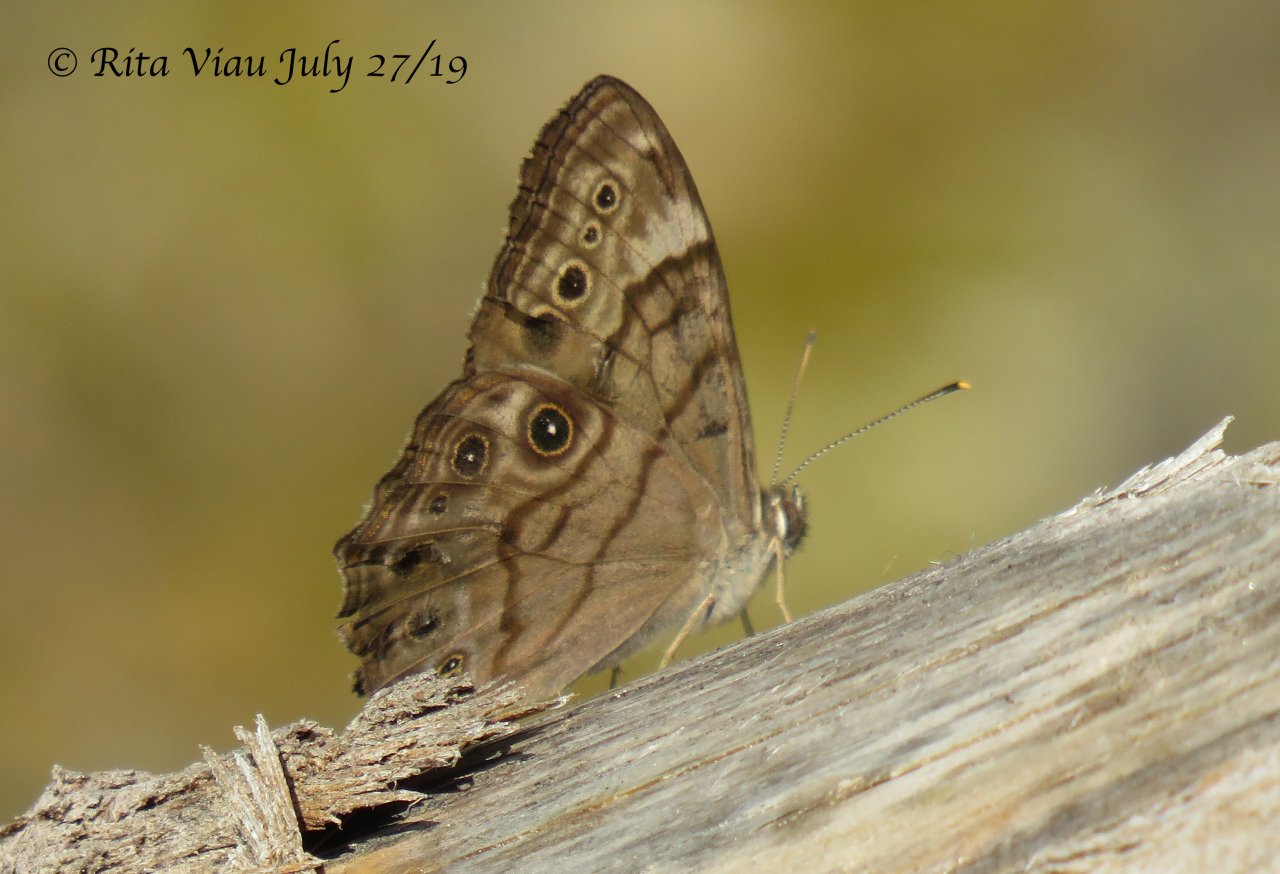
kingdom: Animalia
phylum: Arthropoda
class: Insecta
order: Lepidoptera
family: Nymphalidae
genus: Lethe
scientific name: Lethe anthedon
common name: Northern Pearly-Eye
